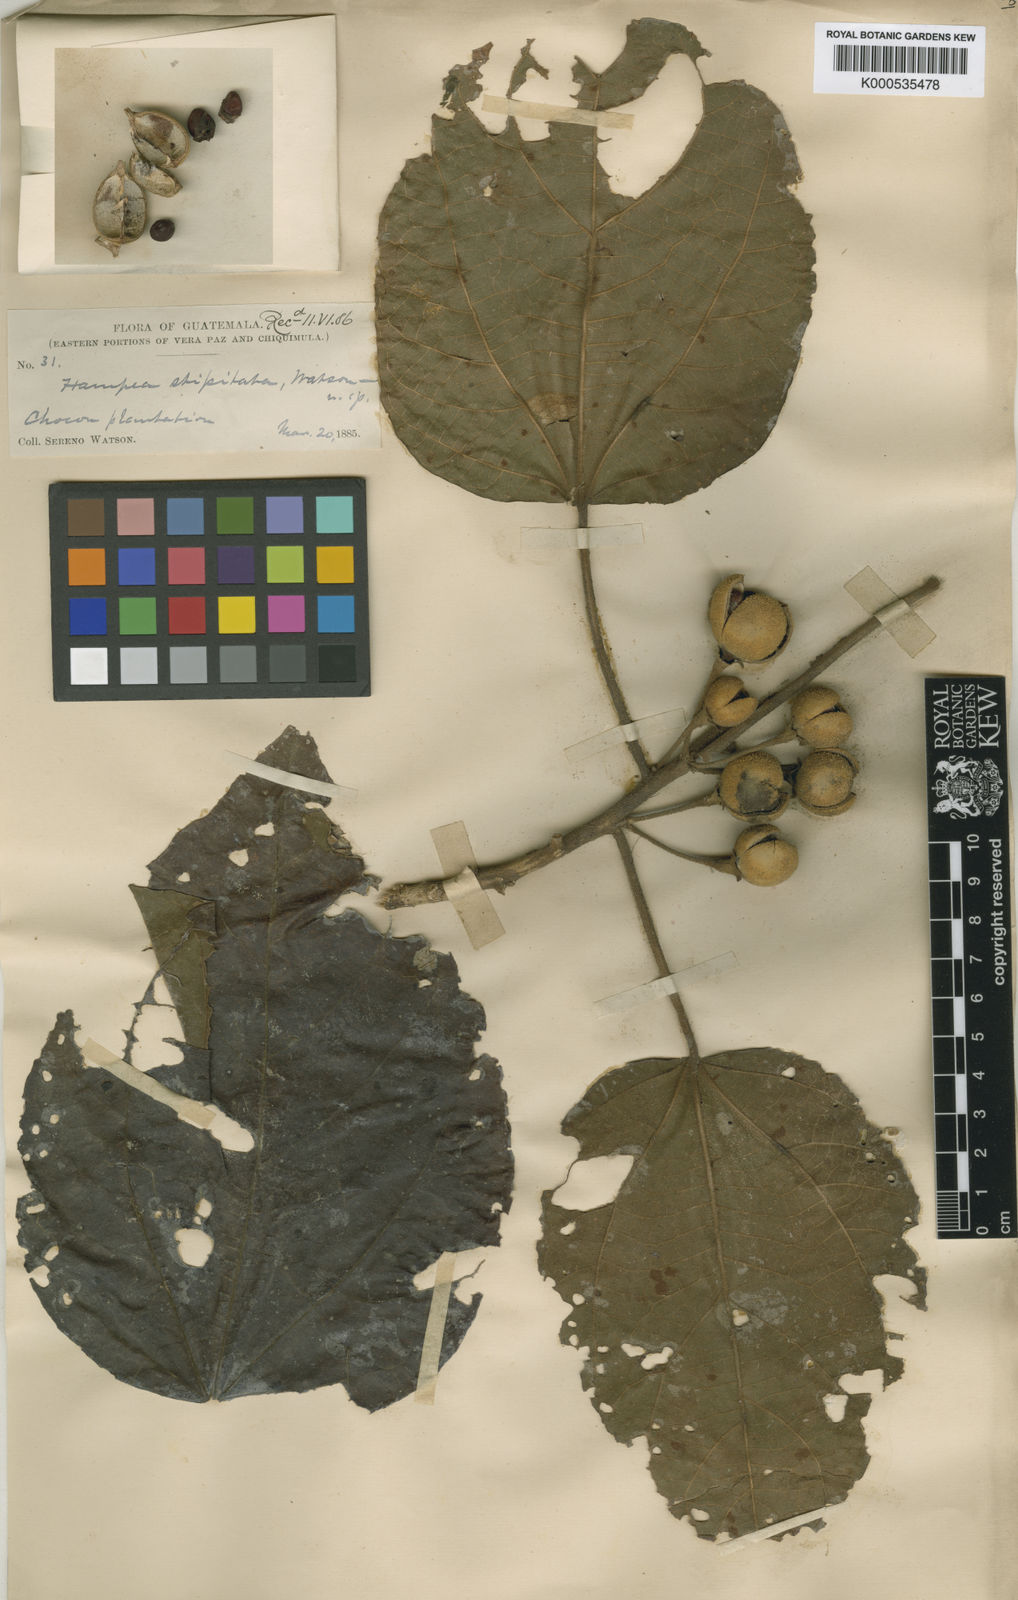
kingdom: Plantae
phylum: Tracheophyta
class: Magnoliopsida
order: Malvales
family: Malvaceae
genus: Hampea
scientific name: Hampea stipitata
